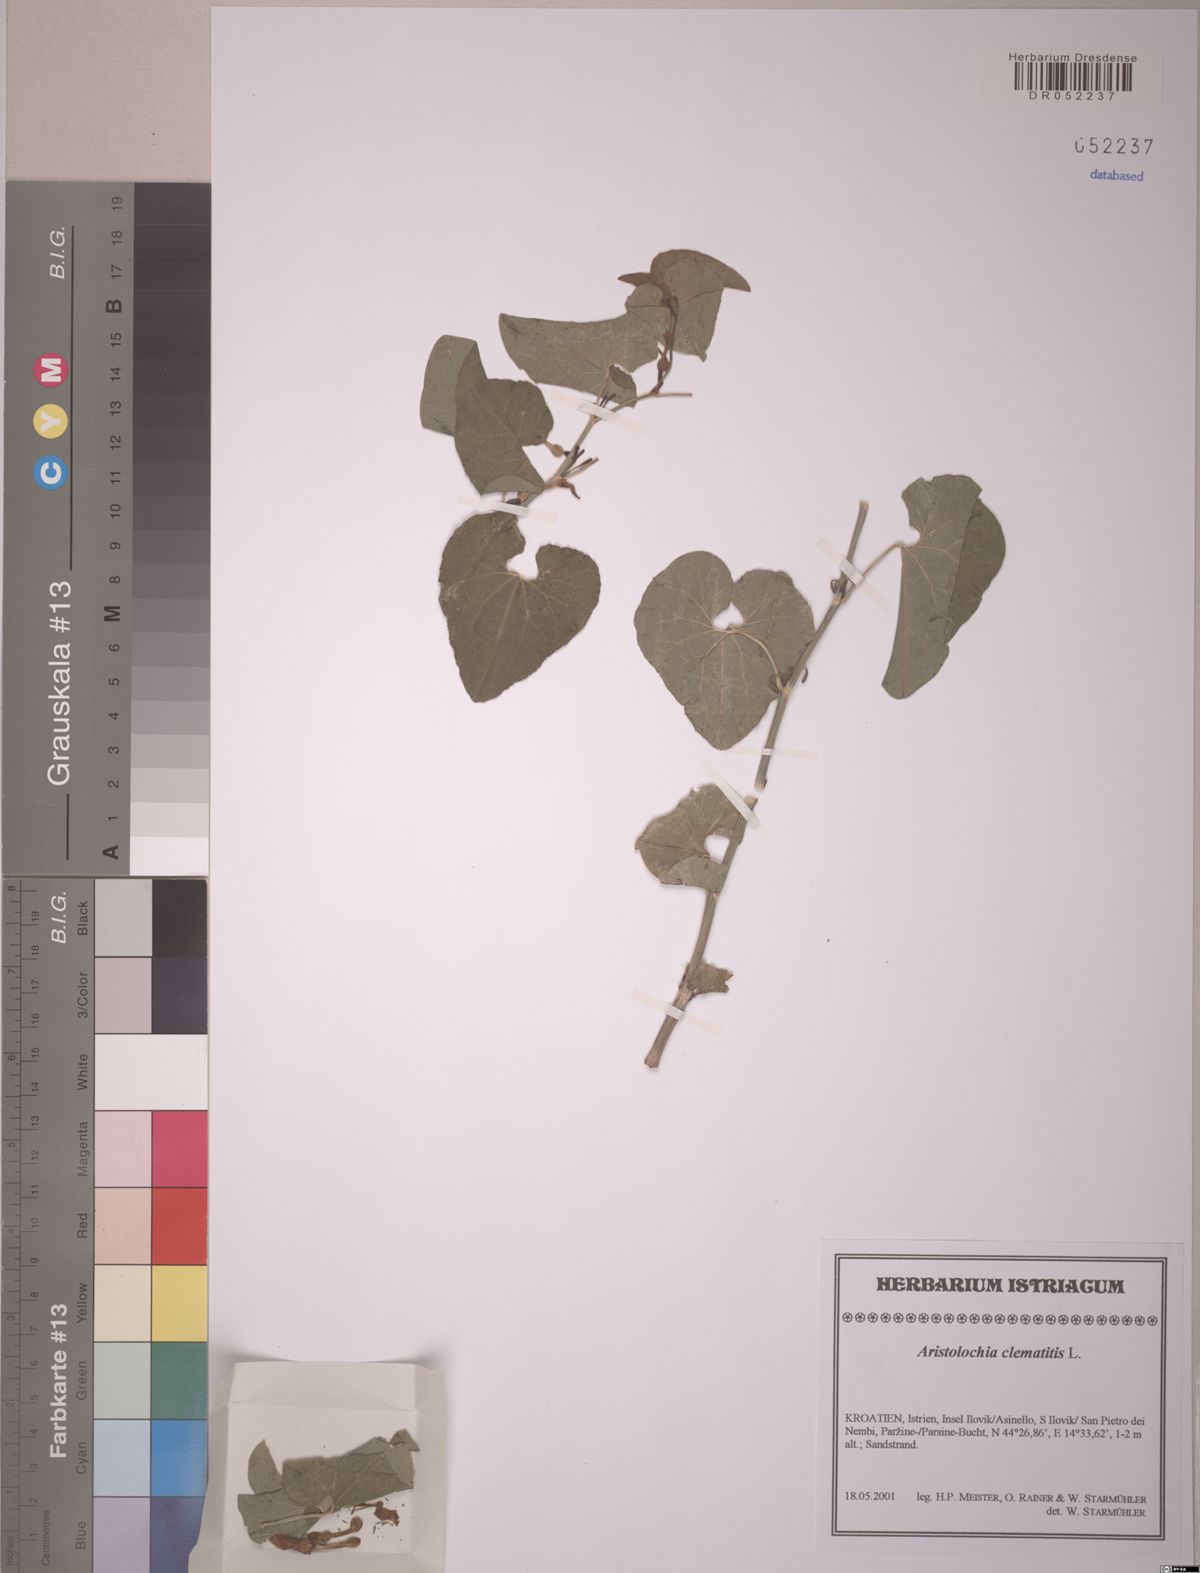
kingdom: Plantae
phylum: Tracheophyta
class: Magnoliopsida
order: Piperales
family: Aristolochiaceae
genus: Aristolochia
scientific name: Aristolochia clematitis
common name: Birthwort
